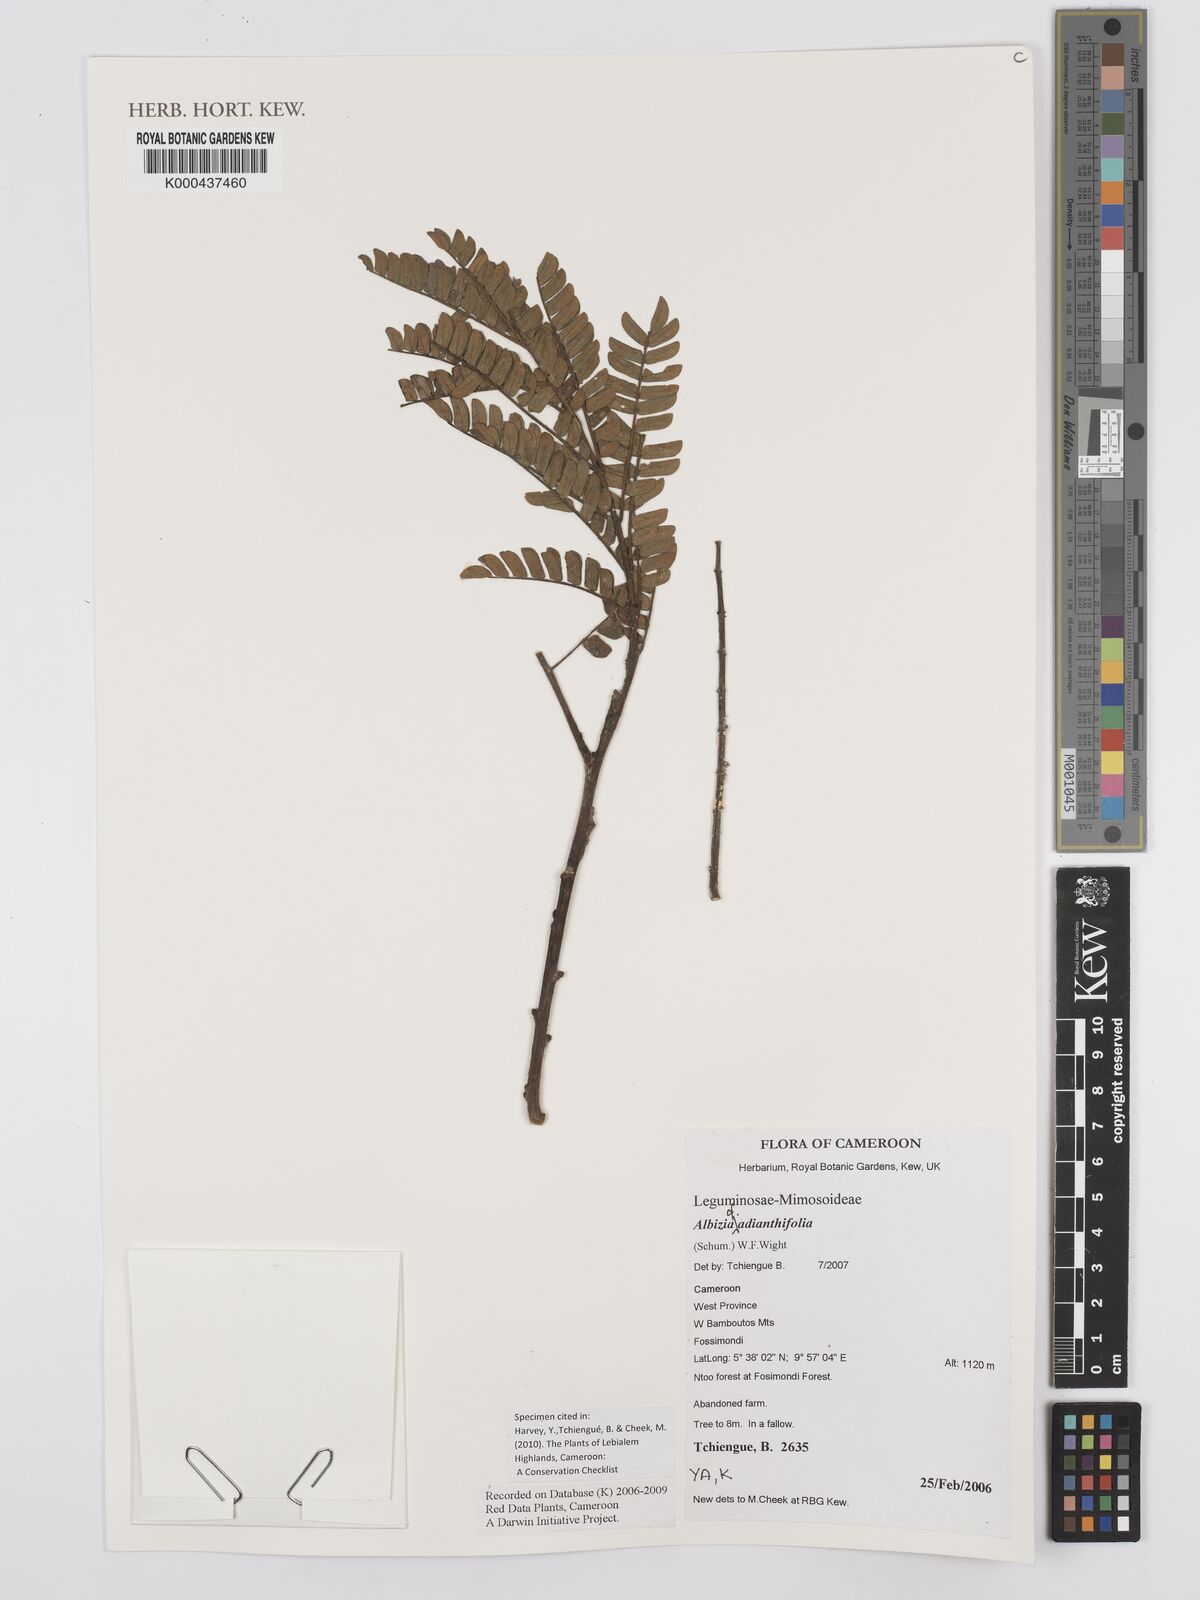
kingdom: Plantae
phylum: Tracheophyta
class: Magnoliopsida
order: Fabales
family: Fabaceae
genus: Albizia
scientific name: Albizia adianthifolia
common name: West african albizia
